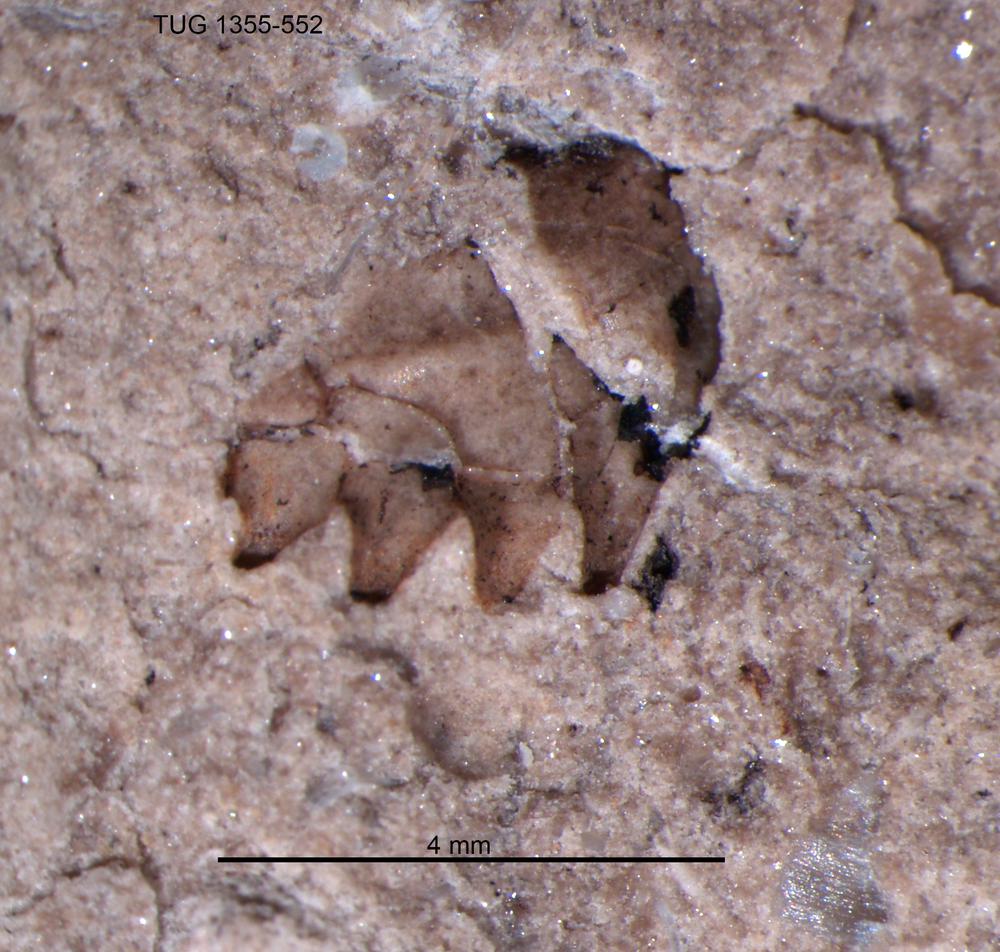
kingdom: Plantae
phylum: Tracheophyta
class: Pinopsida
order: Pinales
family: Cupressaceae
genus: Platycladus
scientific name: Platycladus
